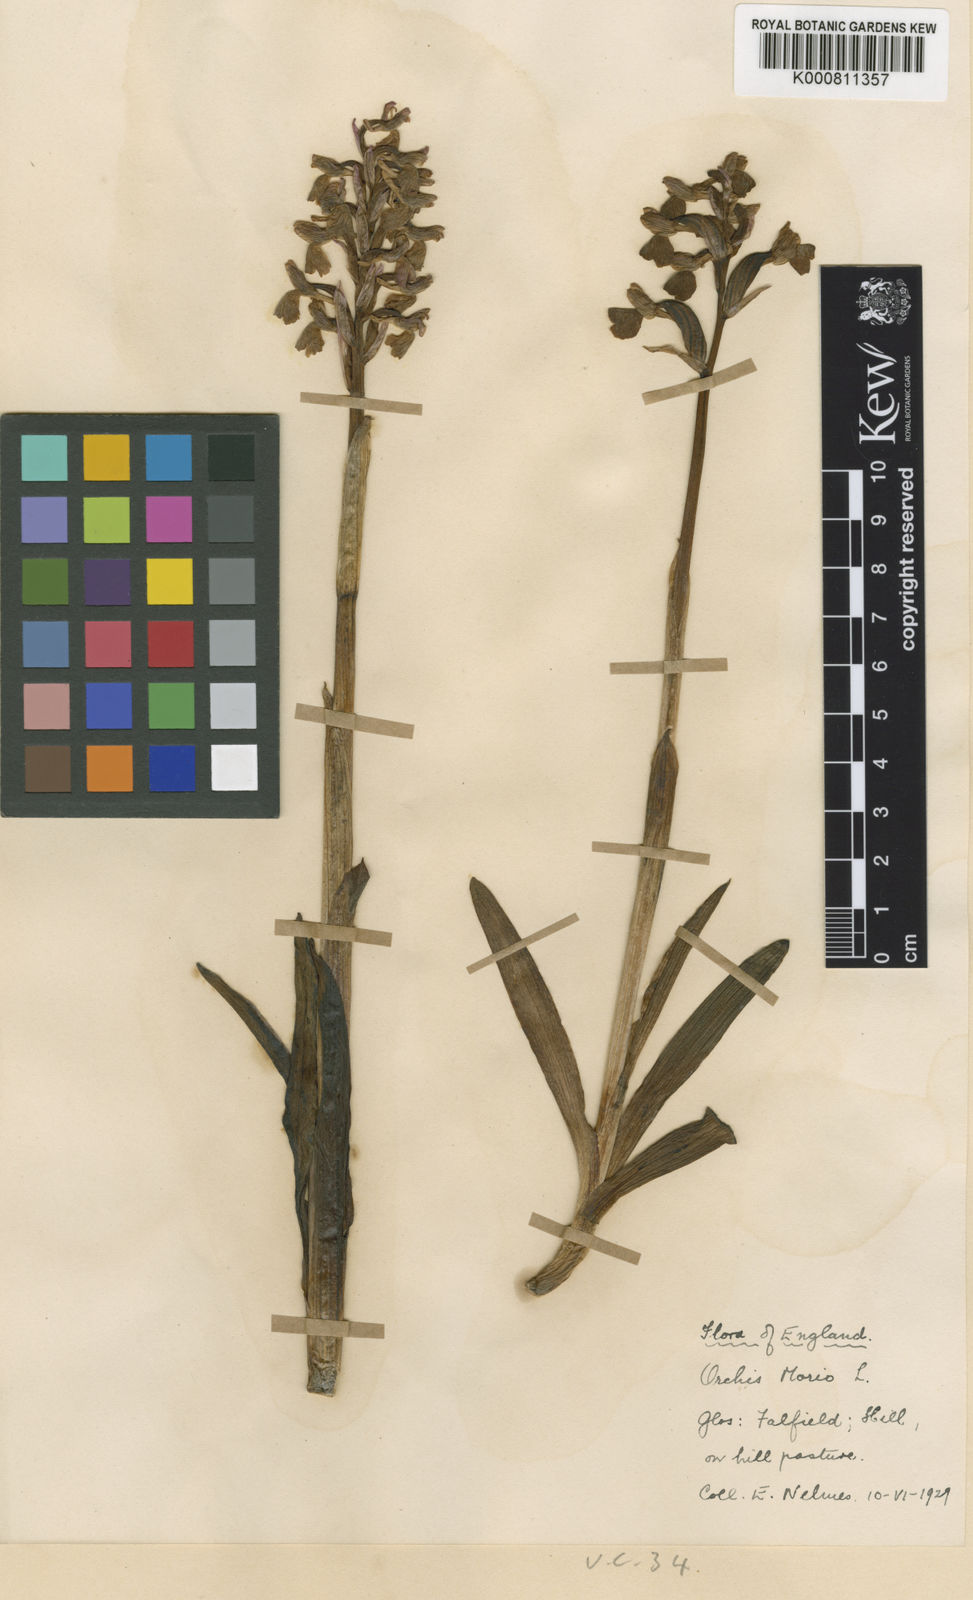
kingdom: Plantae
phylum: Tracheophyta
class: Liliopsida
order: Asparagales
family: Orchidaceae
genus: Anacamptis
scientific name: Anacamptis morio
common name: Green-winged orchid
